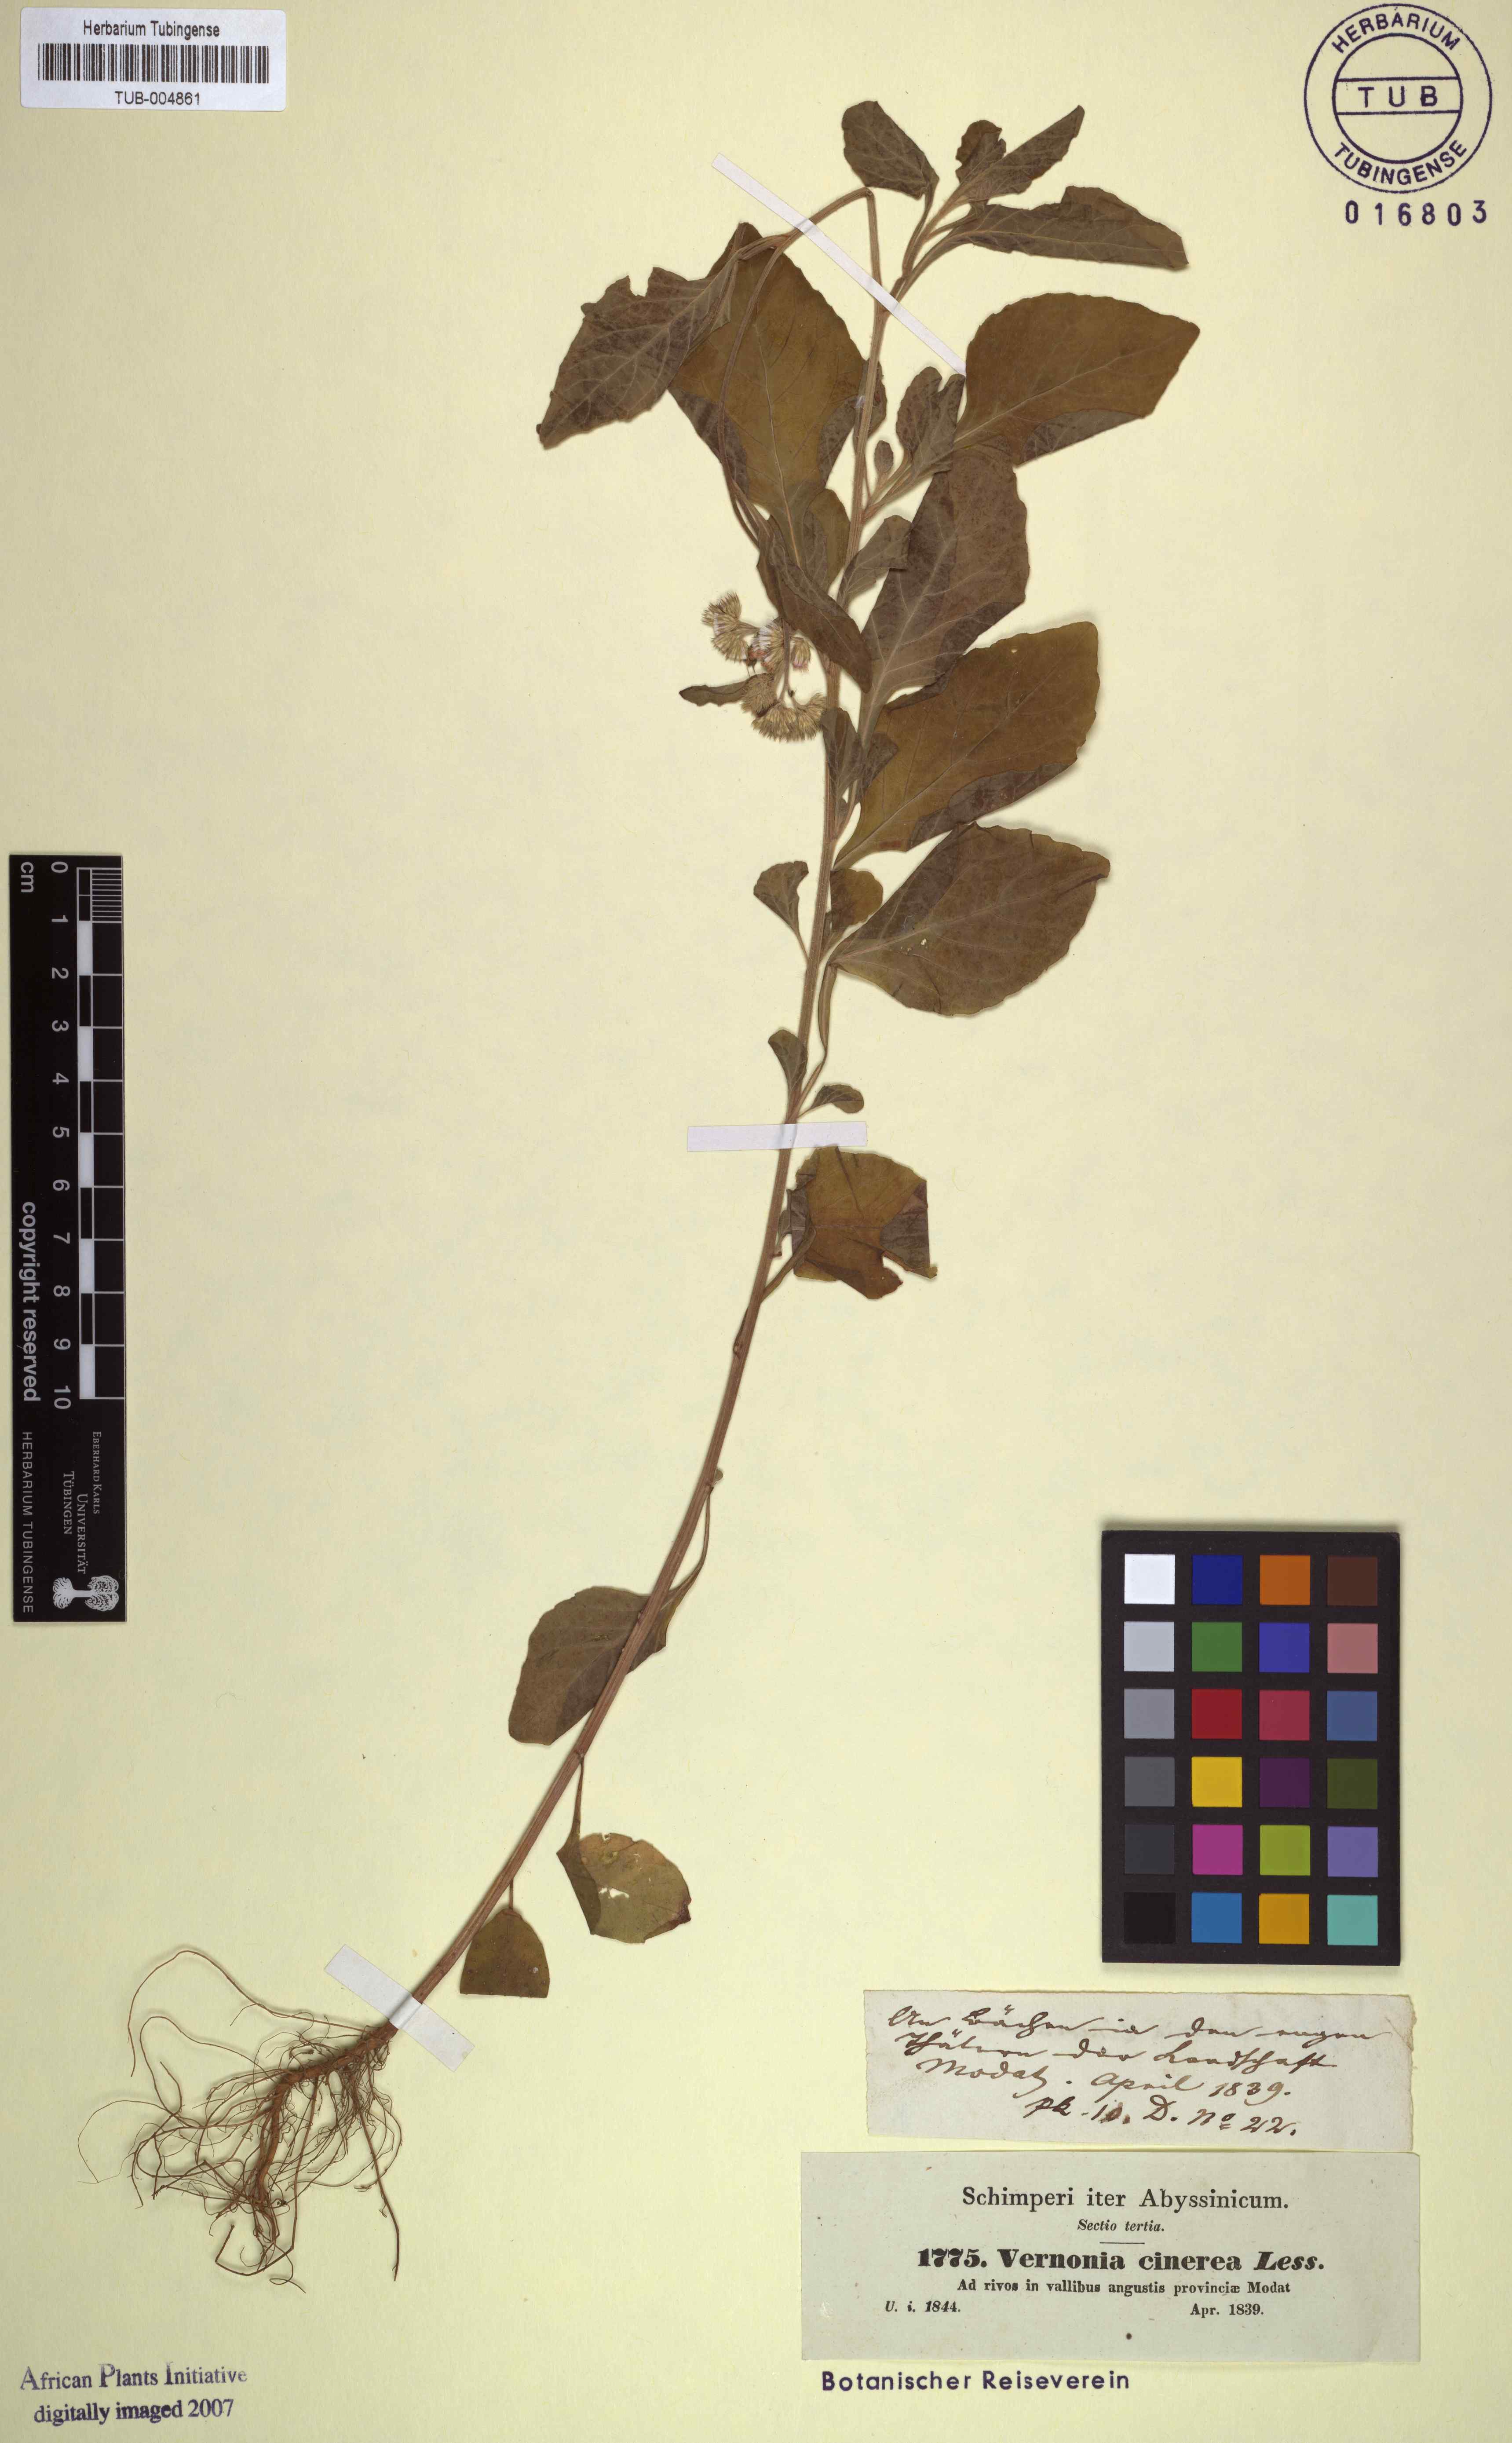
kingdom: Plantae
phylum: Tracheophyta
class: Magnoliopsida
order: Asterales
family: Asteraceae
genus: Cyanthillium
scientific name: Cyanthillium cinereum
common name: Little ironweed
